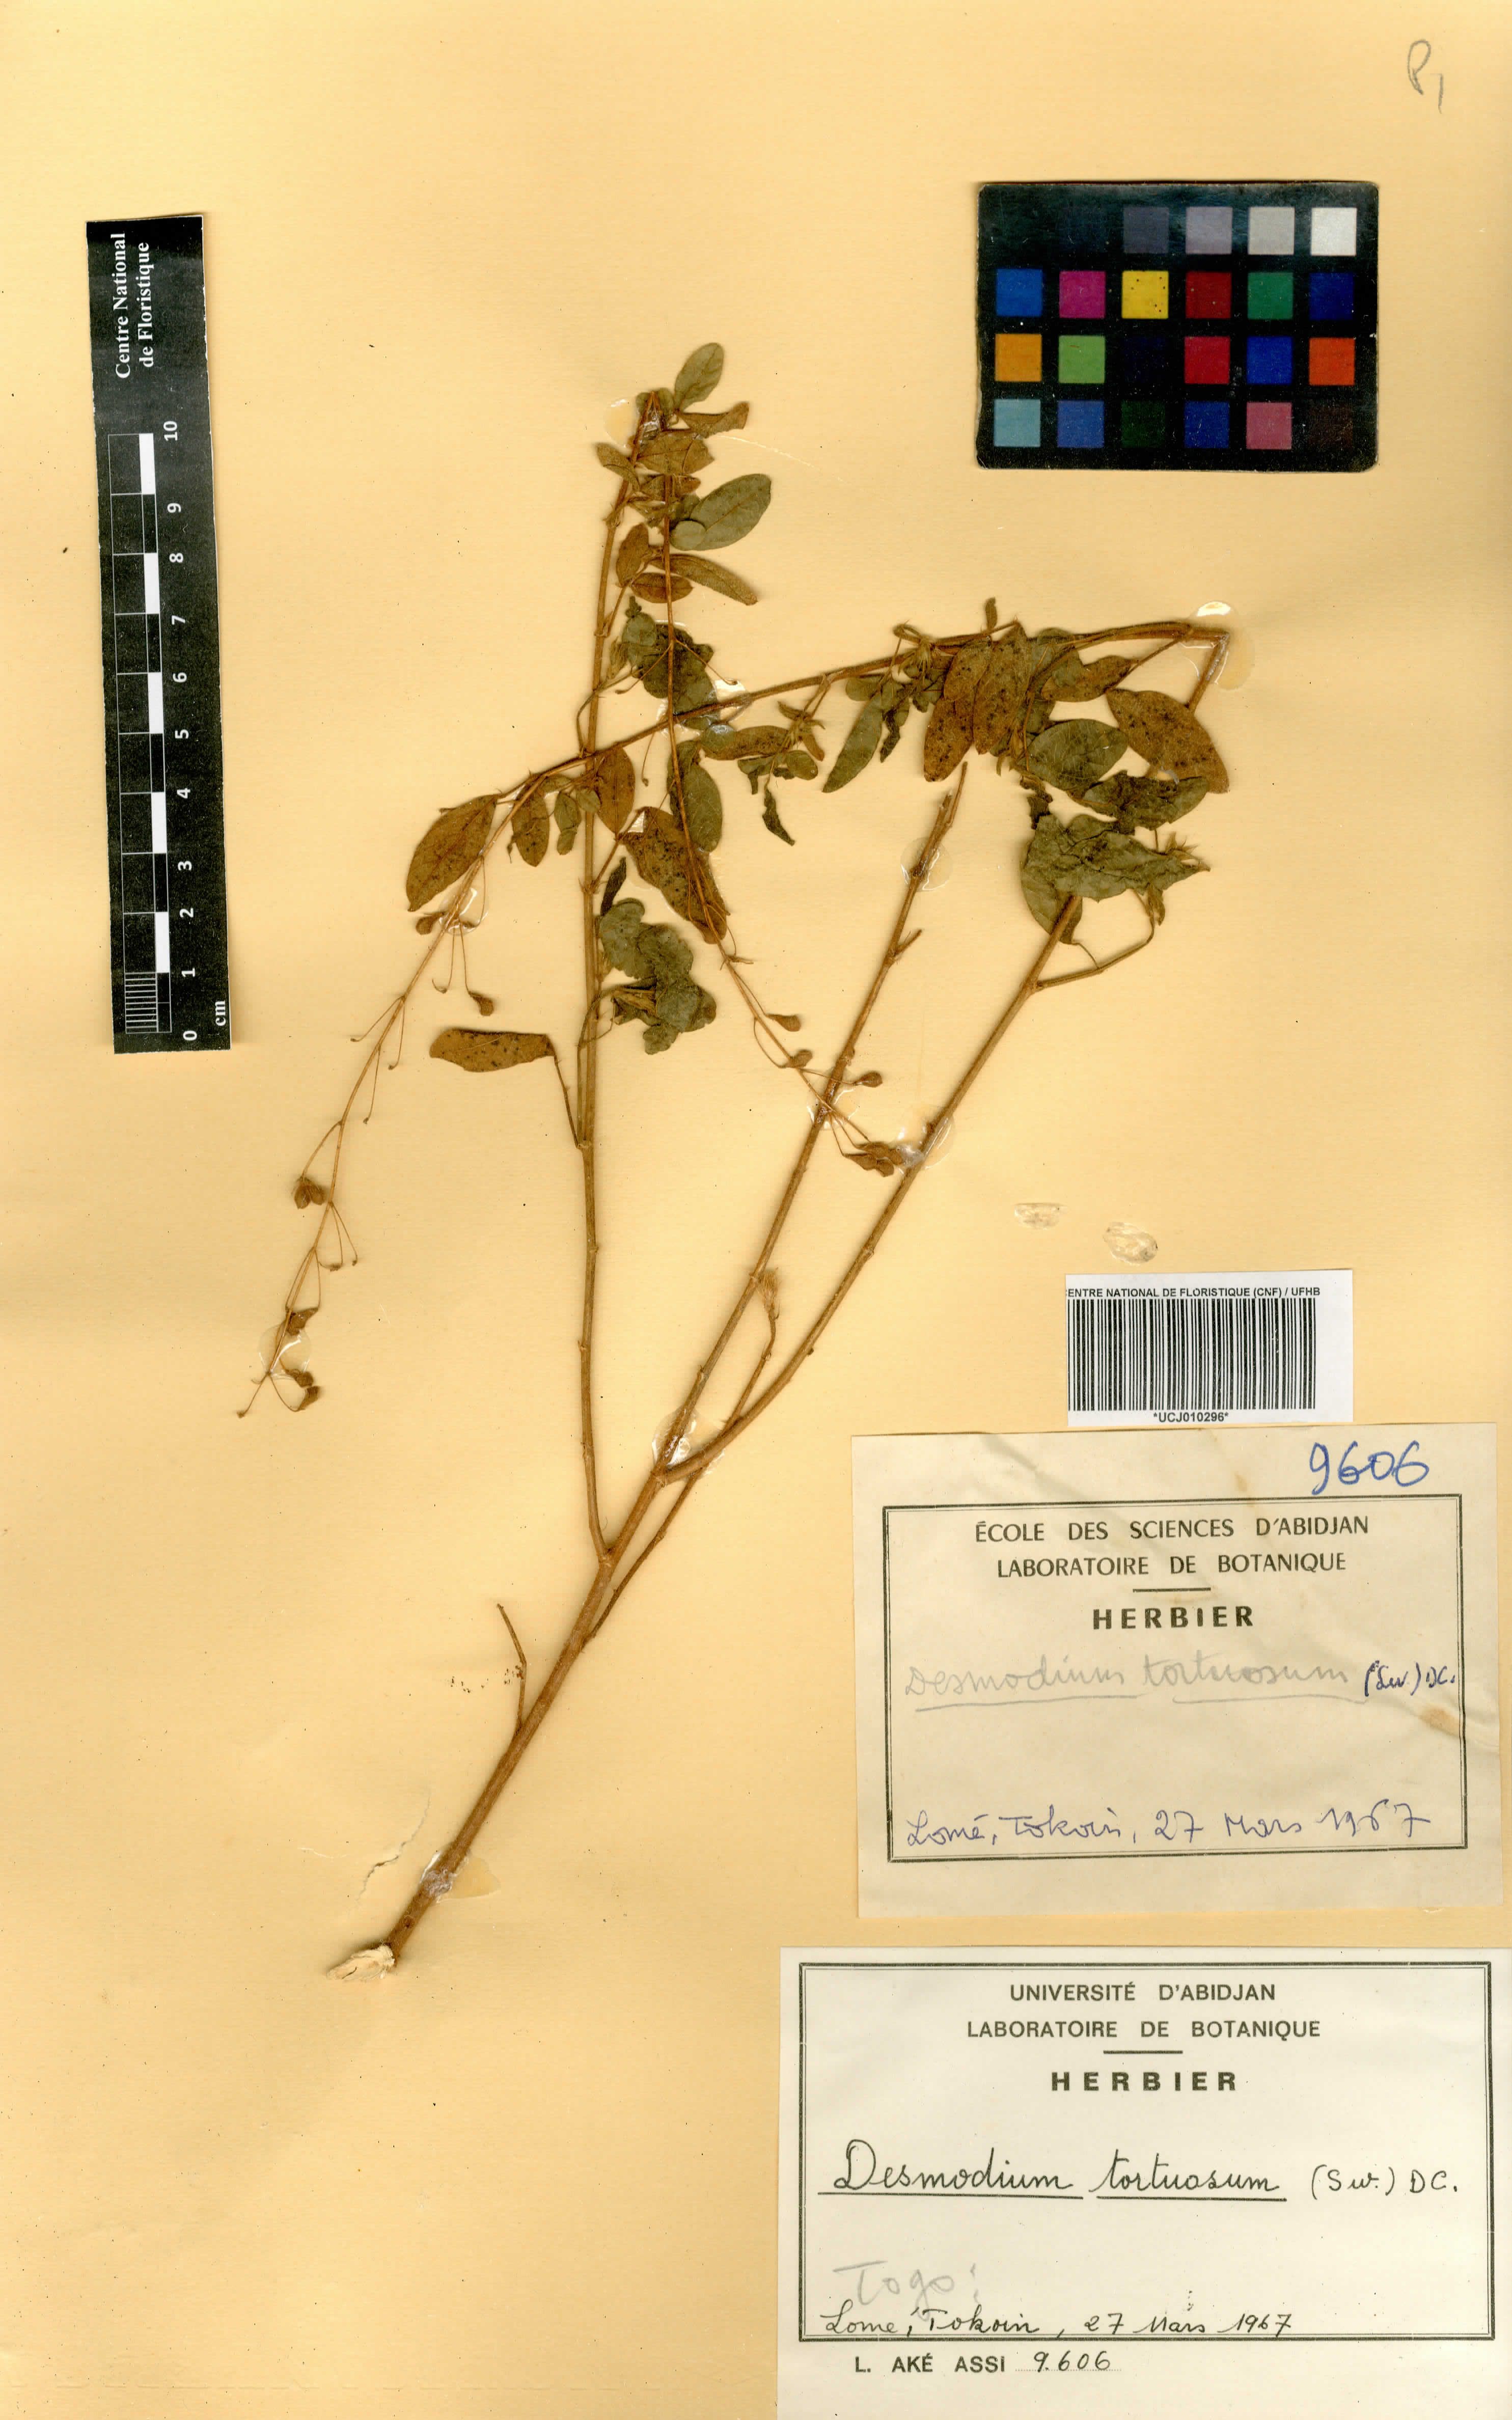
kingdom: Plantae
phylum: Tracheophyta
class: Magnoliopsida
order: Fabales
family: Fabaceae
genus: Desmodium
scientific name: Desmodium tortuosum
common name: Dixie ticktrefoil
